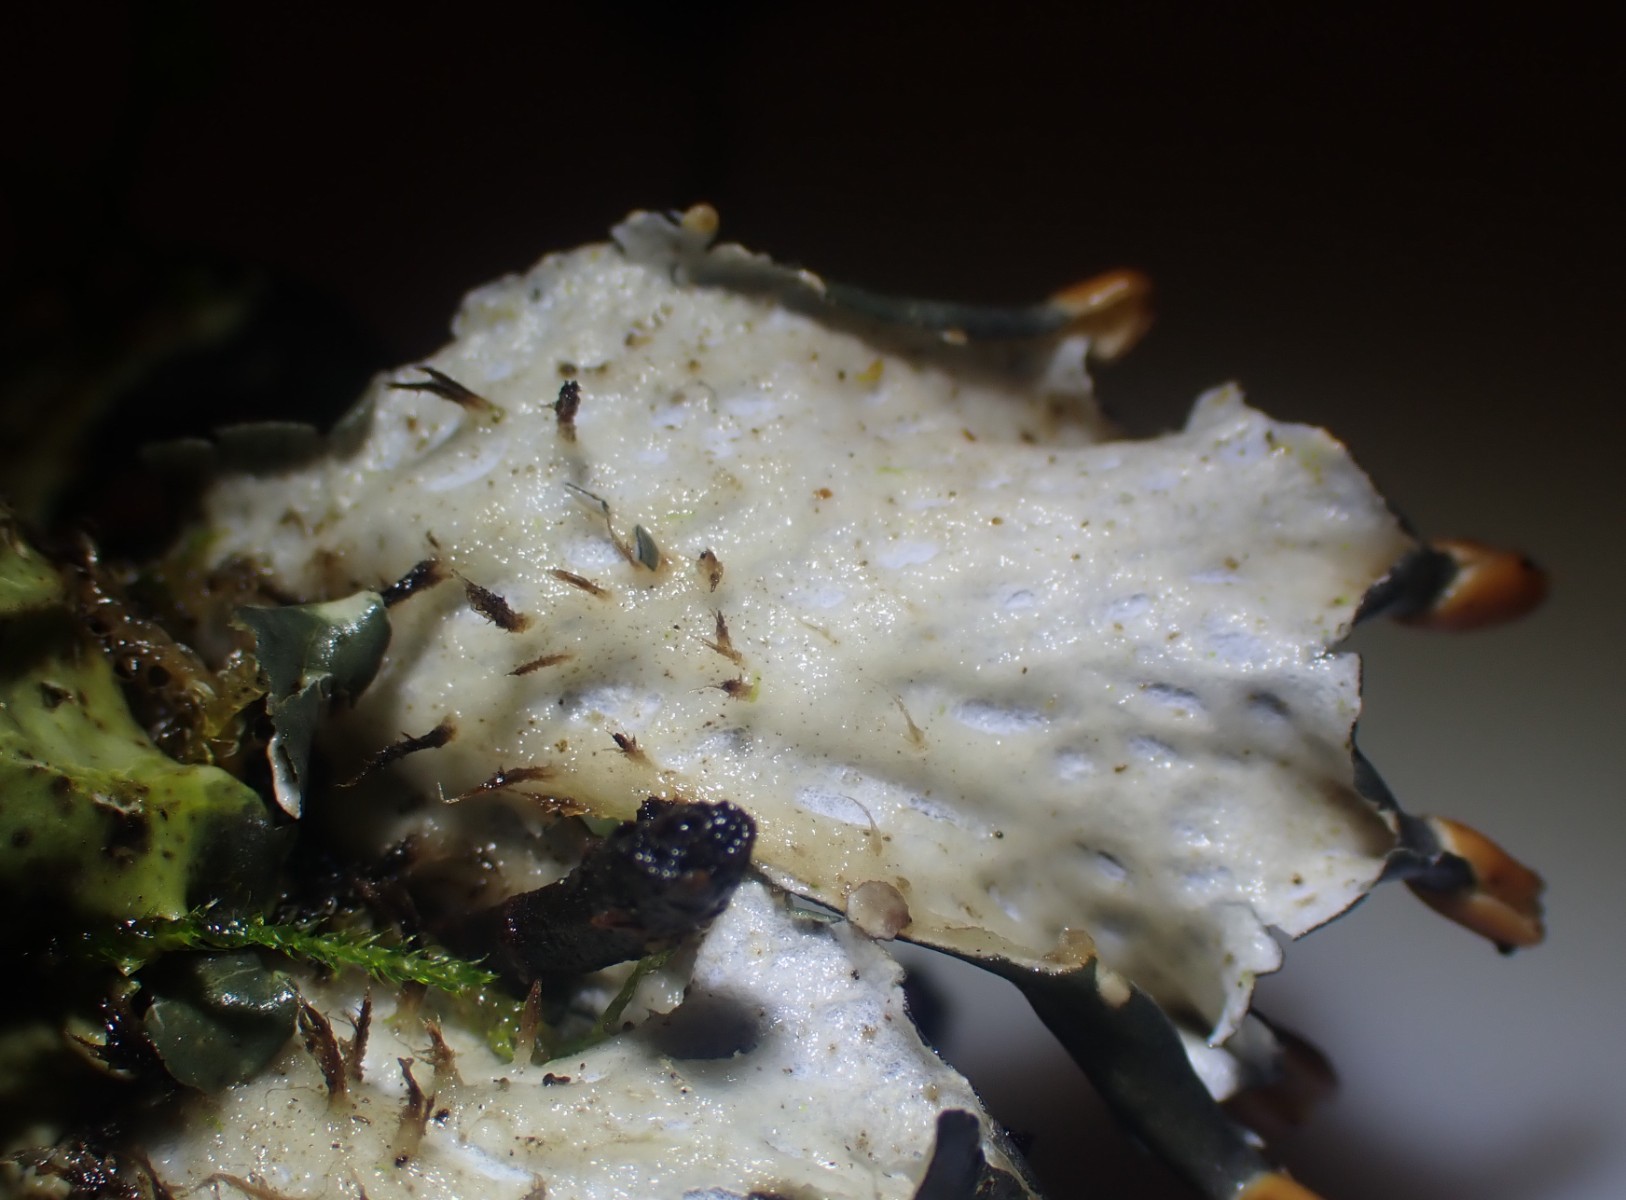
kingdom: Fungi
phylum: Ascomycota
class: Lecanoromycetes
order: Peltigerales
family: Peltigeraceae
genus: Peltigera
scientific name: Peltigera hymenina
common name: hinde-skjoldlav
